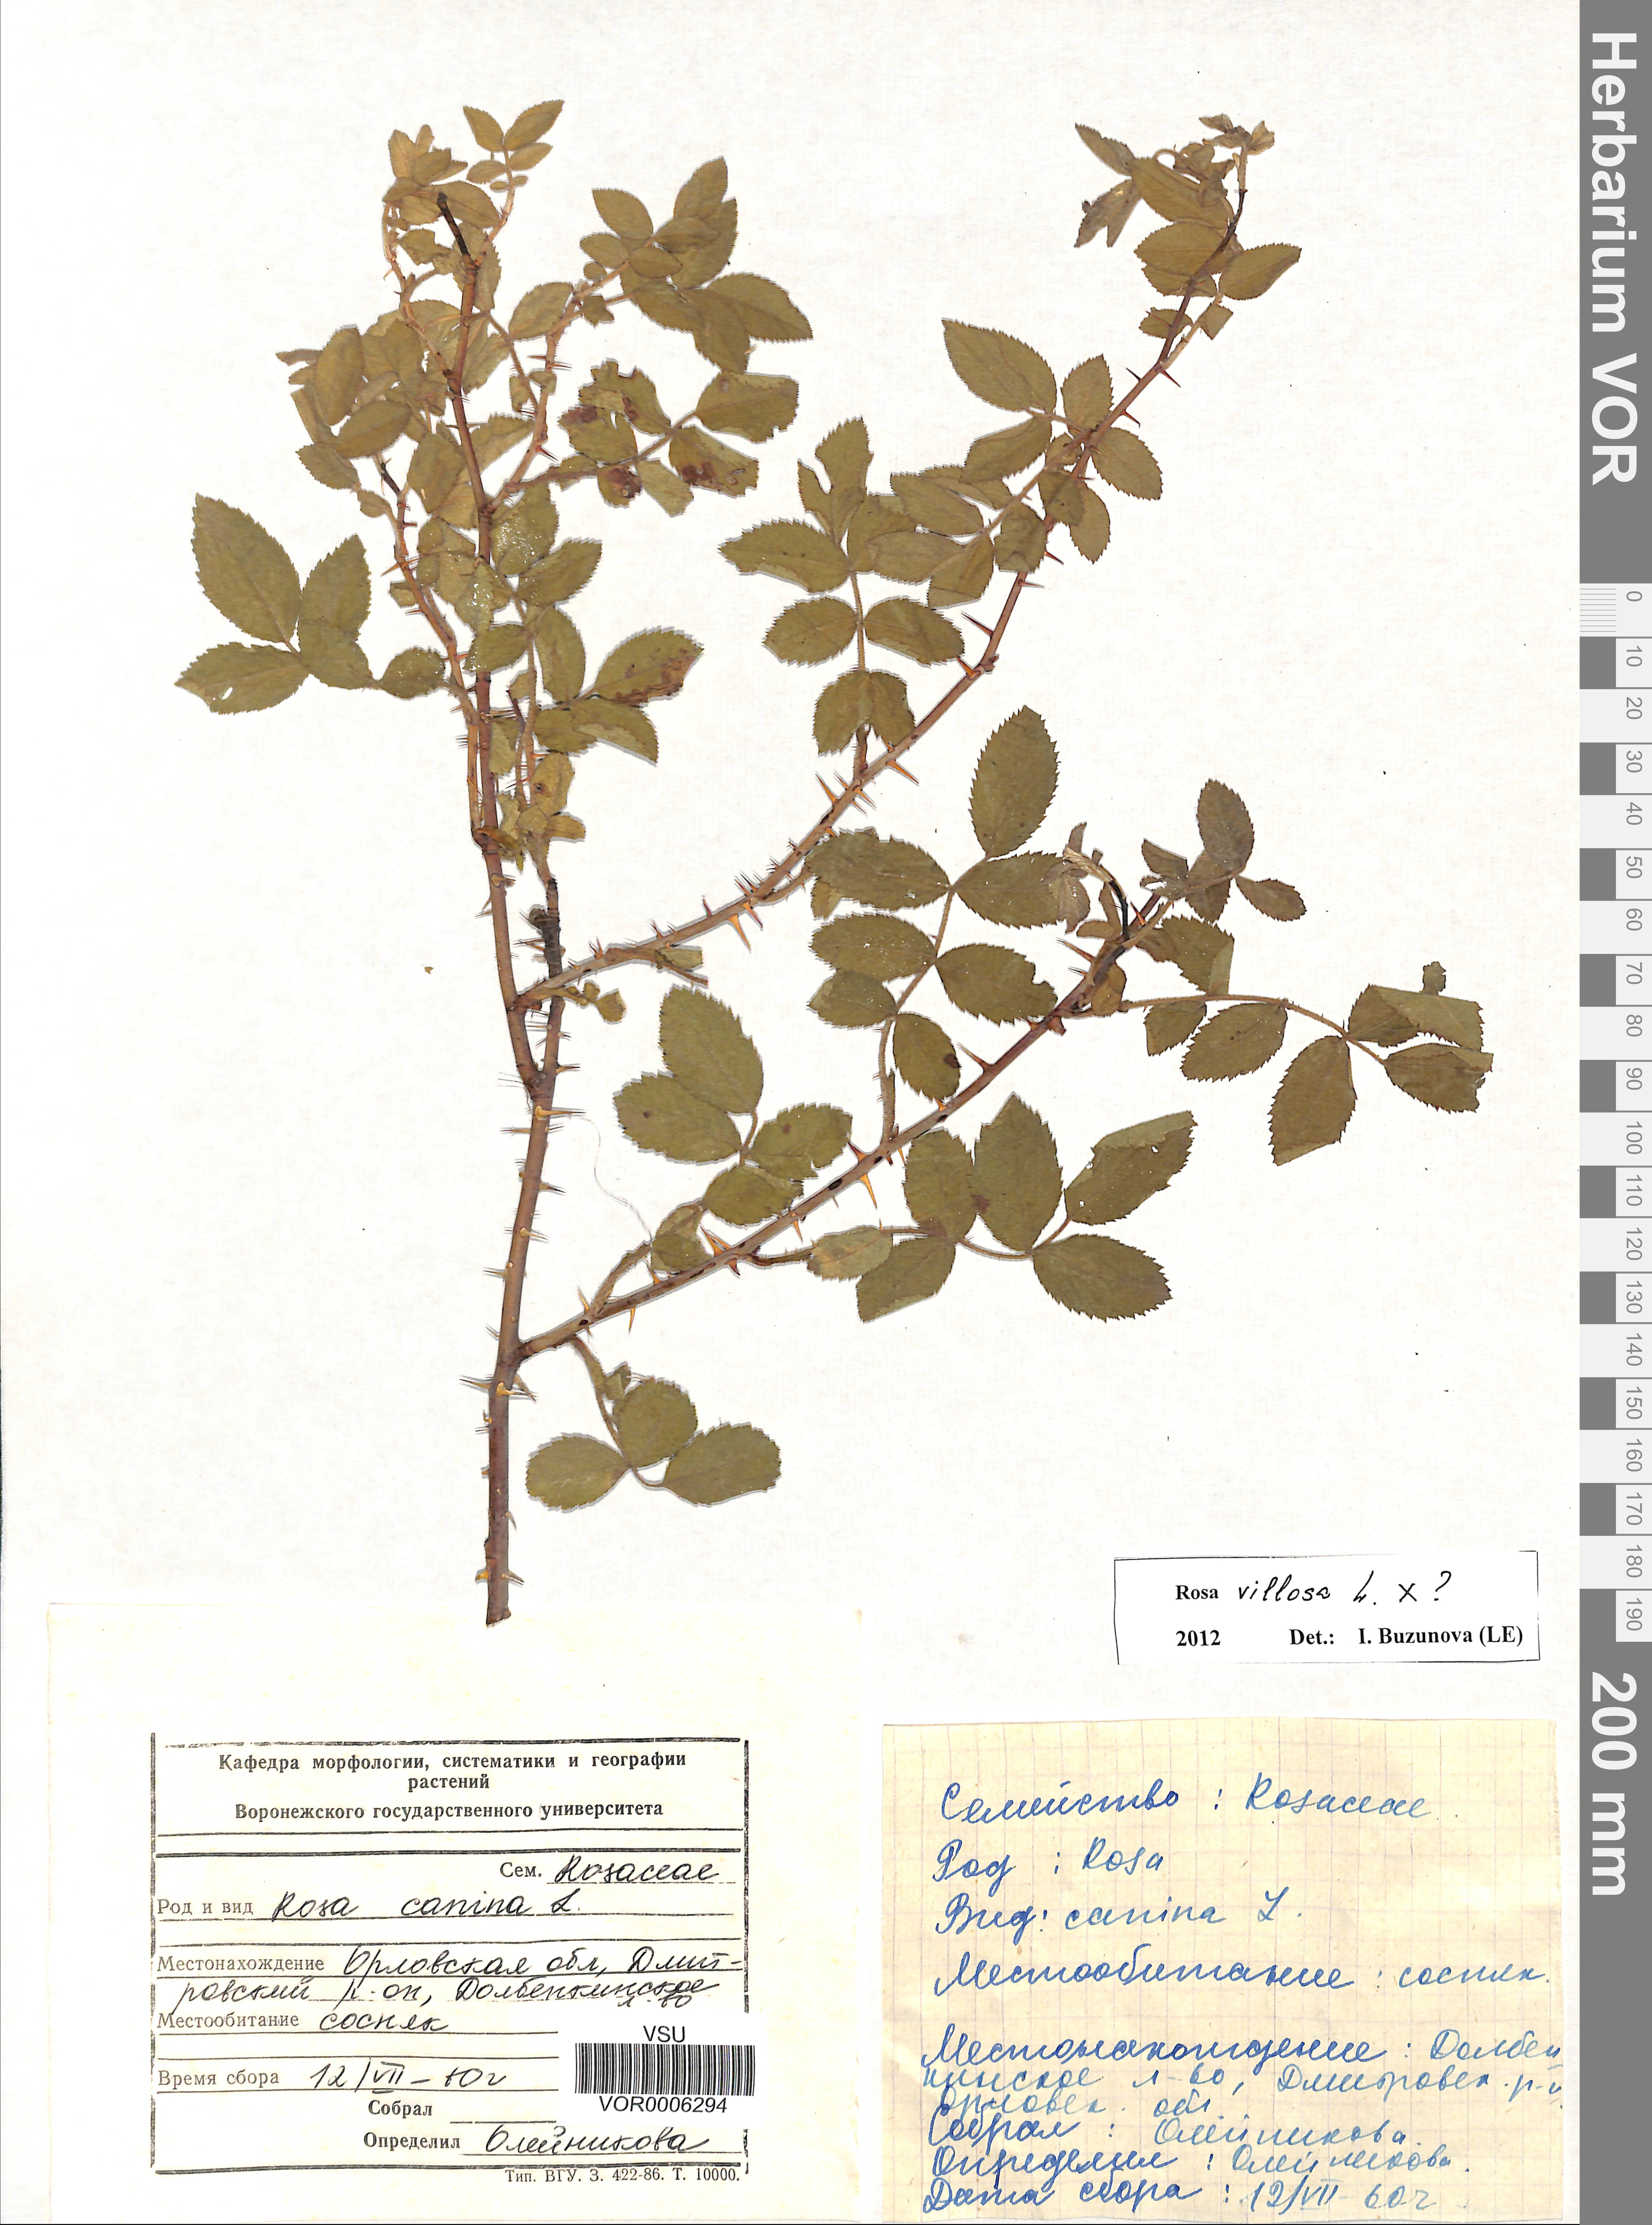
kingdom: Plantae
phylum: Tracheophyta
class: Magnoliopsida
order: Rosales
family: Rosaceae
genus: Rosa
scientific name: Rosa villosa
